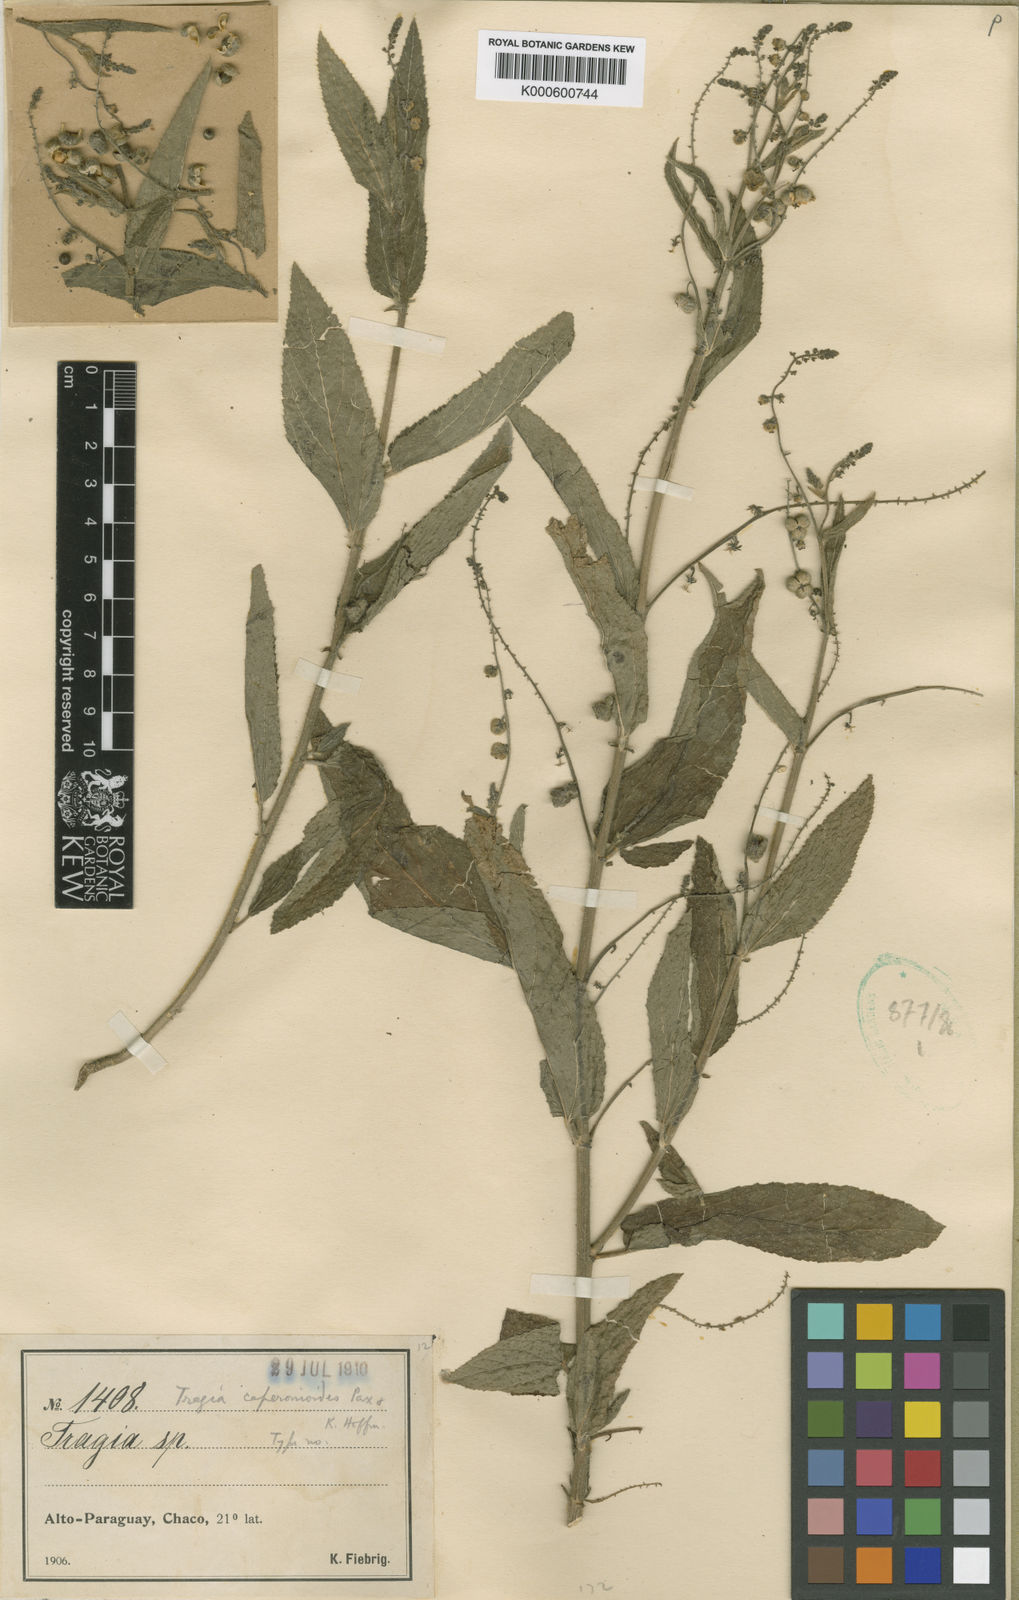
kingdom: Plantae
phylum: Tracheophyta
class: Magnoliopsida
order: Malpighiales
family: Euphorbiaceae
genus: Tragia
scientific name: Tragia caperonioides
